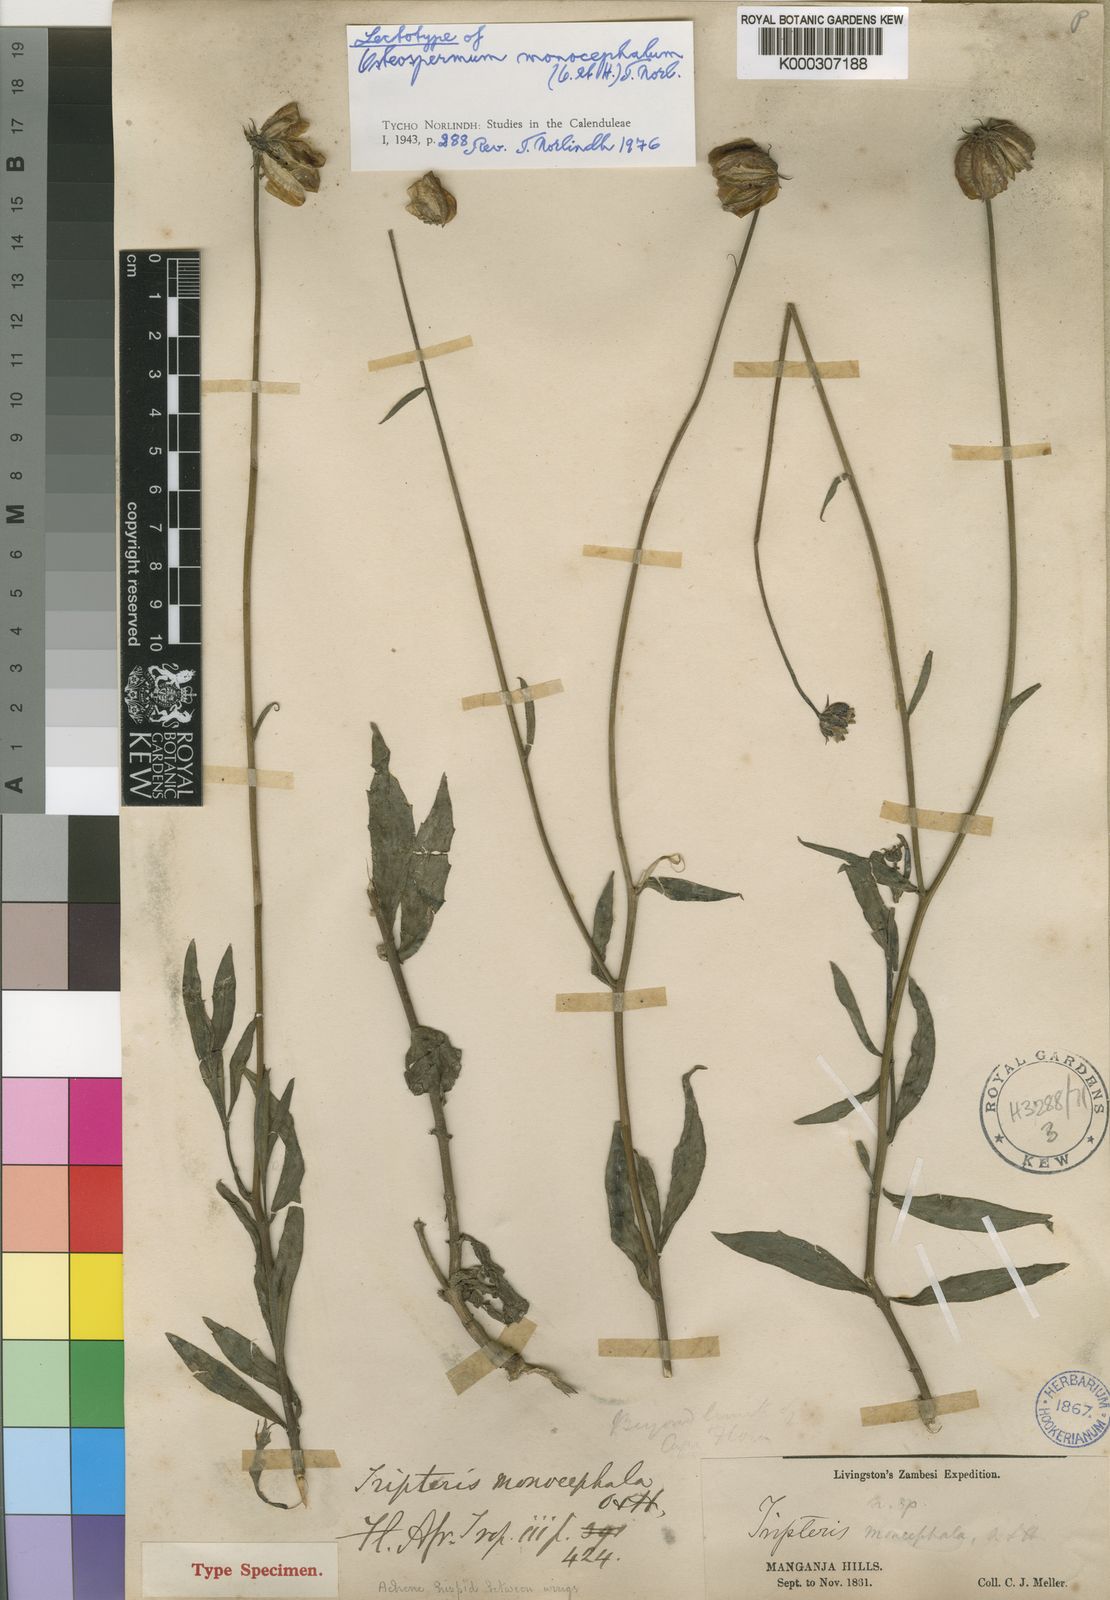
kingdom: Plantae
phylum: Tracheophyta
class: Magnoliopsida
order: Asterales
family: Asteraceae
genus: Osteospermum
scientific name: Osteospermum monocephalum
